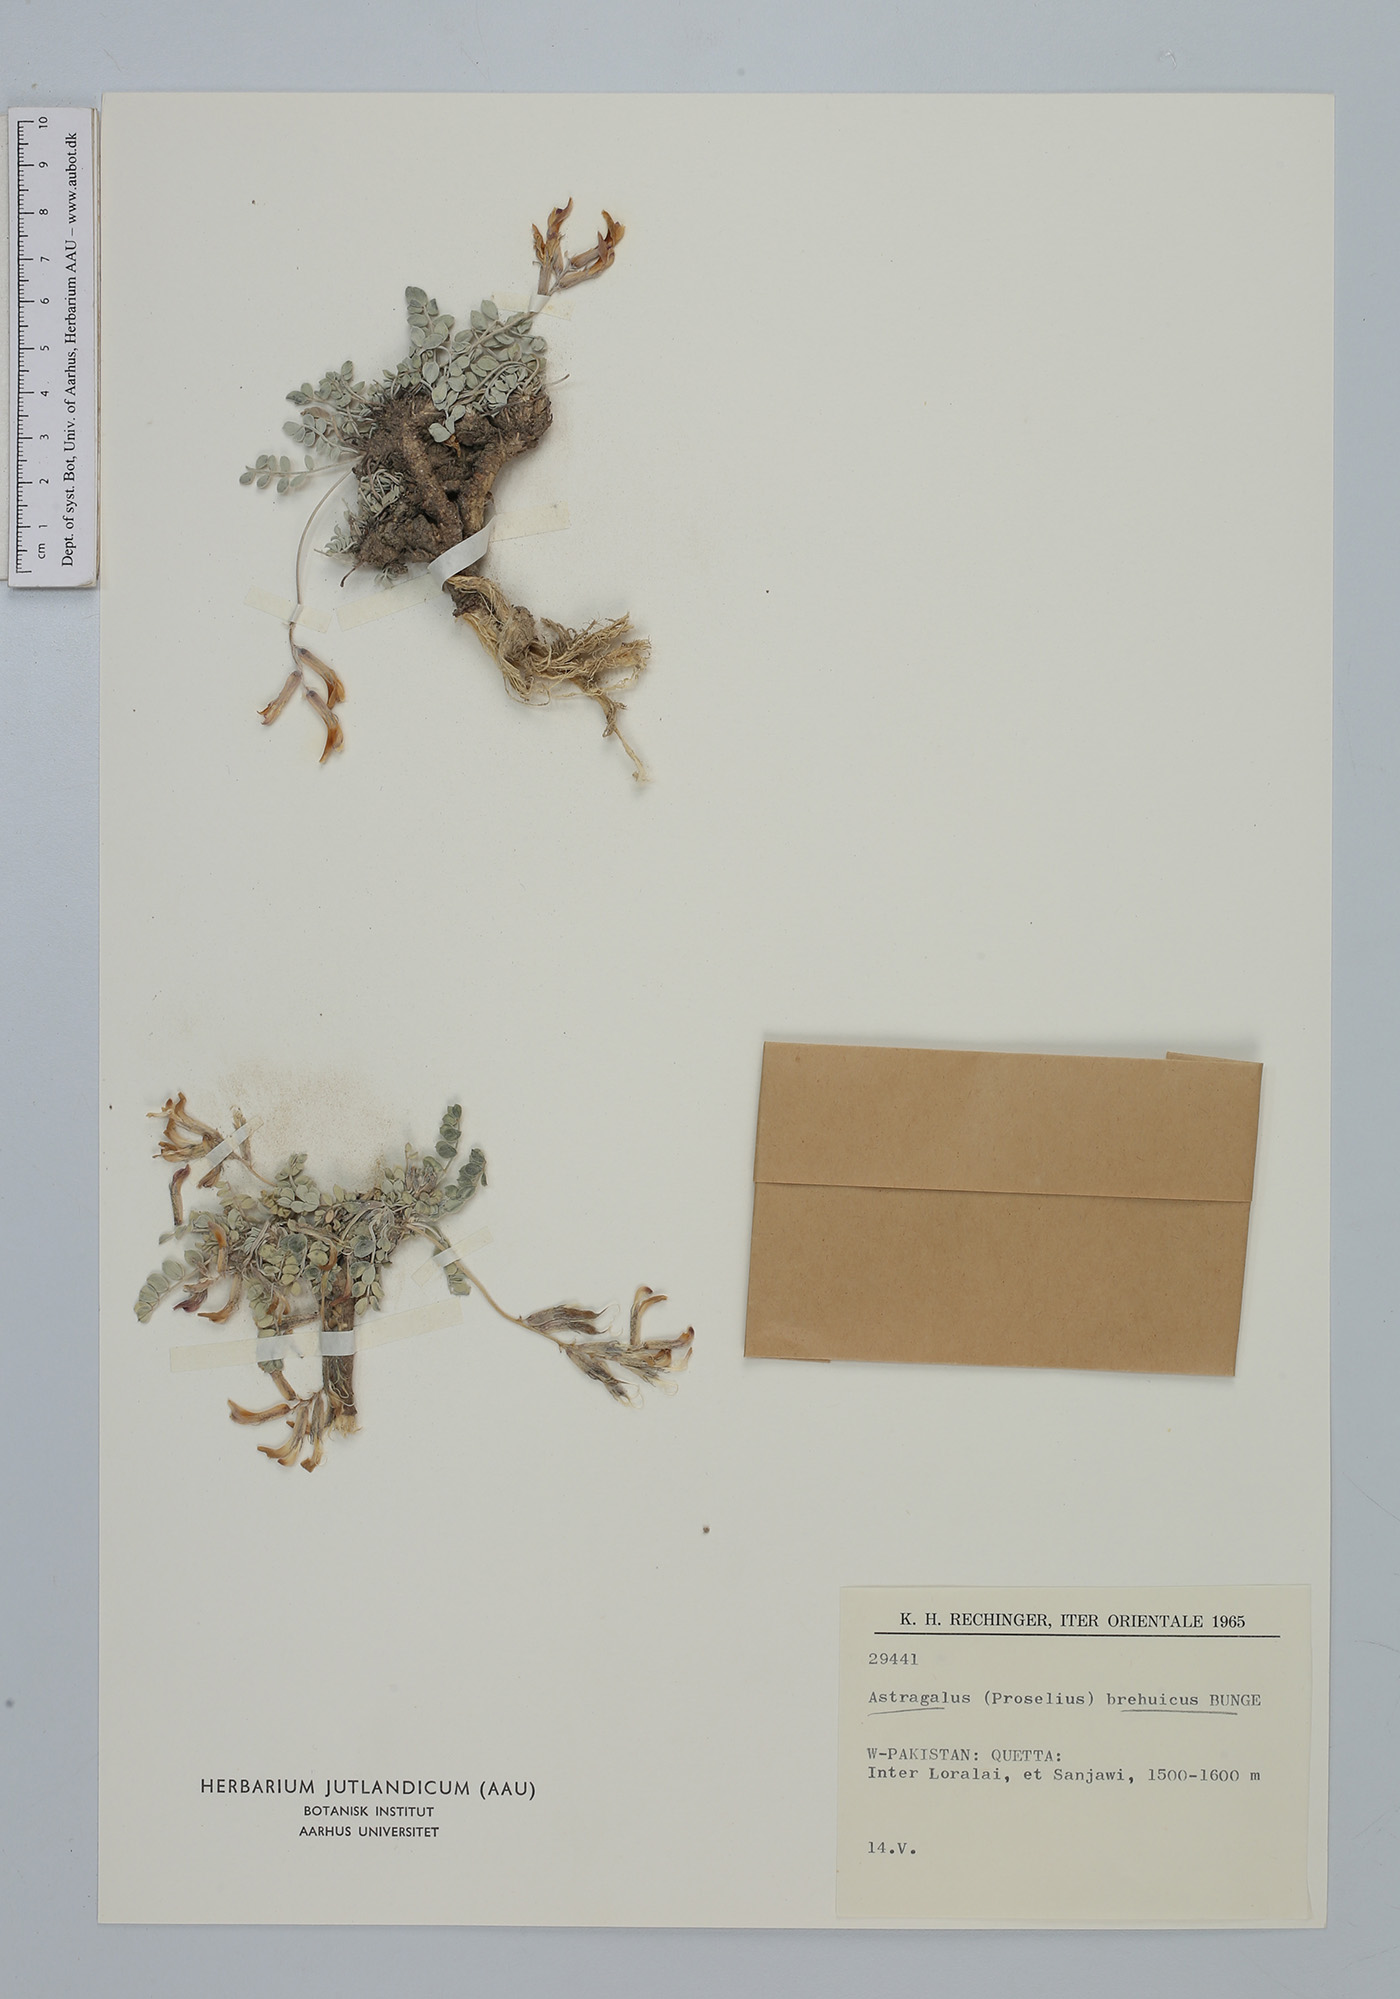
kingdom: Plantae
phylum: Tracheophyta
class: Magnoliopsida
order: Fabales
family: Fabaceae
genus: Astragalus
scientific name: Astragalus brahuicus
